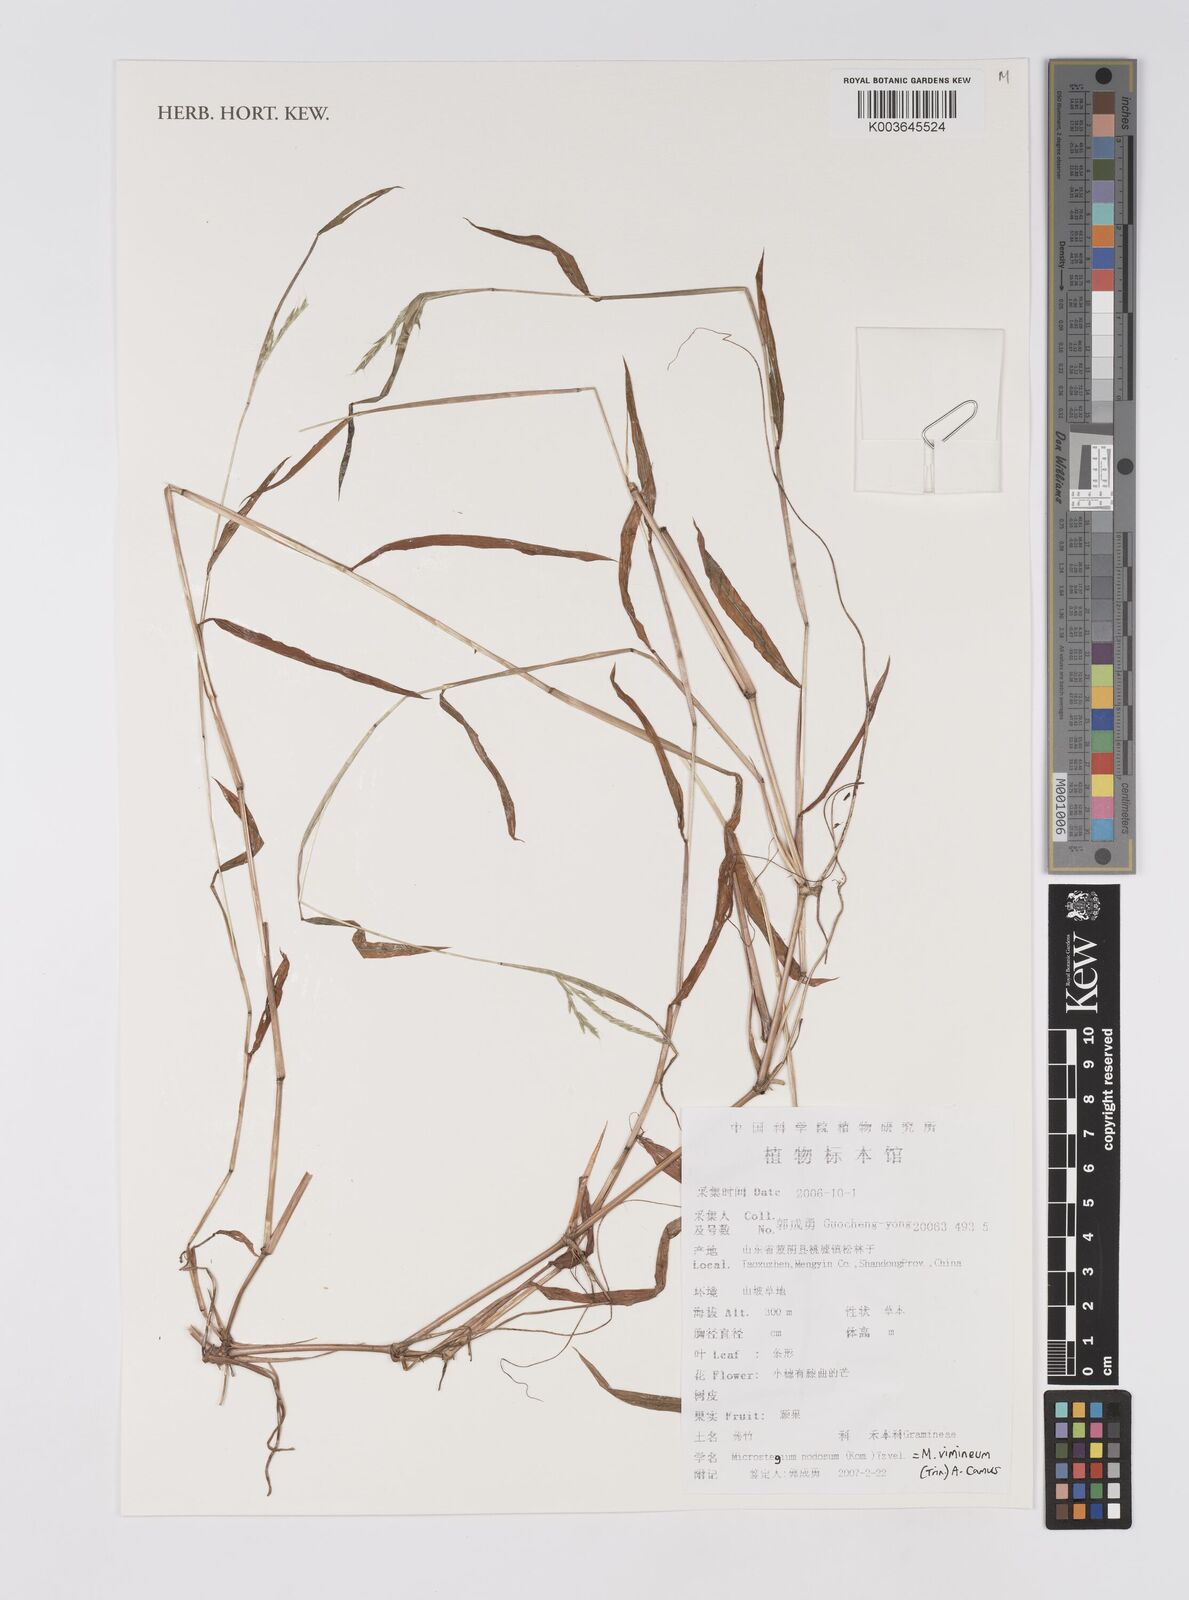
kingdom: Plantae
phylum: Tracheophyta
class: Liliopsida
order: Poales
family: Poaceae
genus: Microstegium
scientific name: Microstegium vimineum
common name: Japanese stiltgrass
